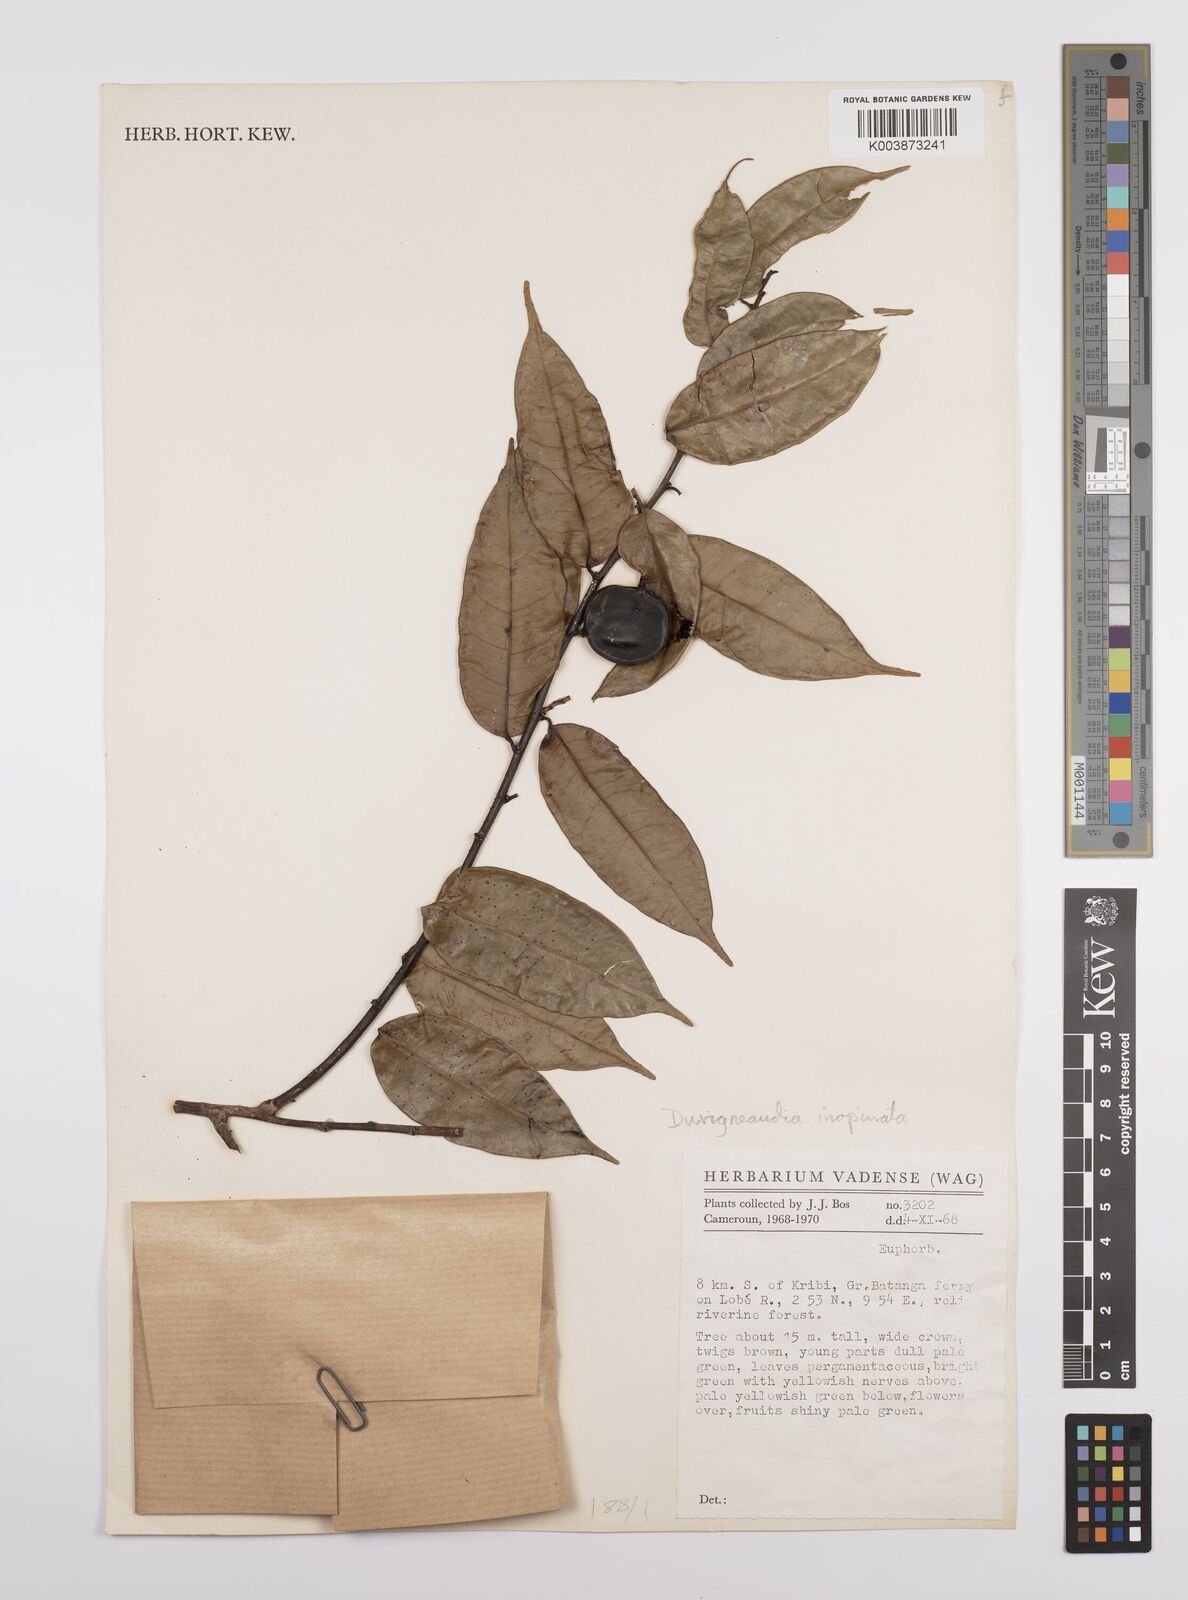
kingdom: Plantae
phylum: Tracheophyta
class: Magnoliopsida
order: Malpighiales
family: Euphorbiaceae
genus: Gymnanthes
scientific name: Gymnanthes inopinata
